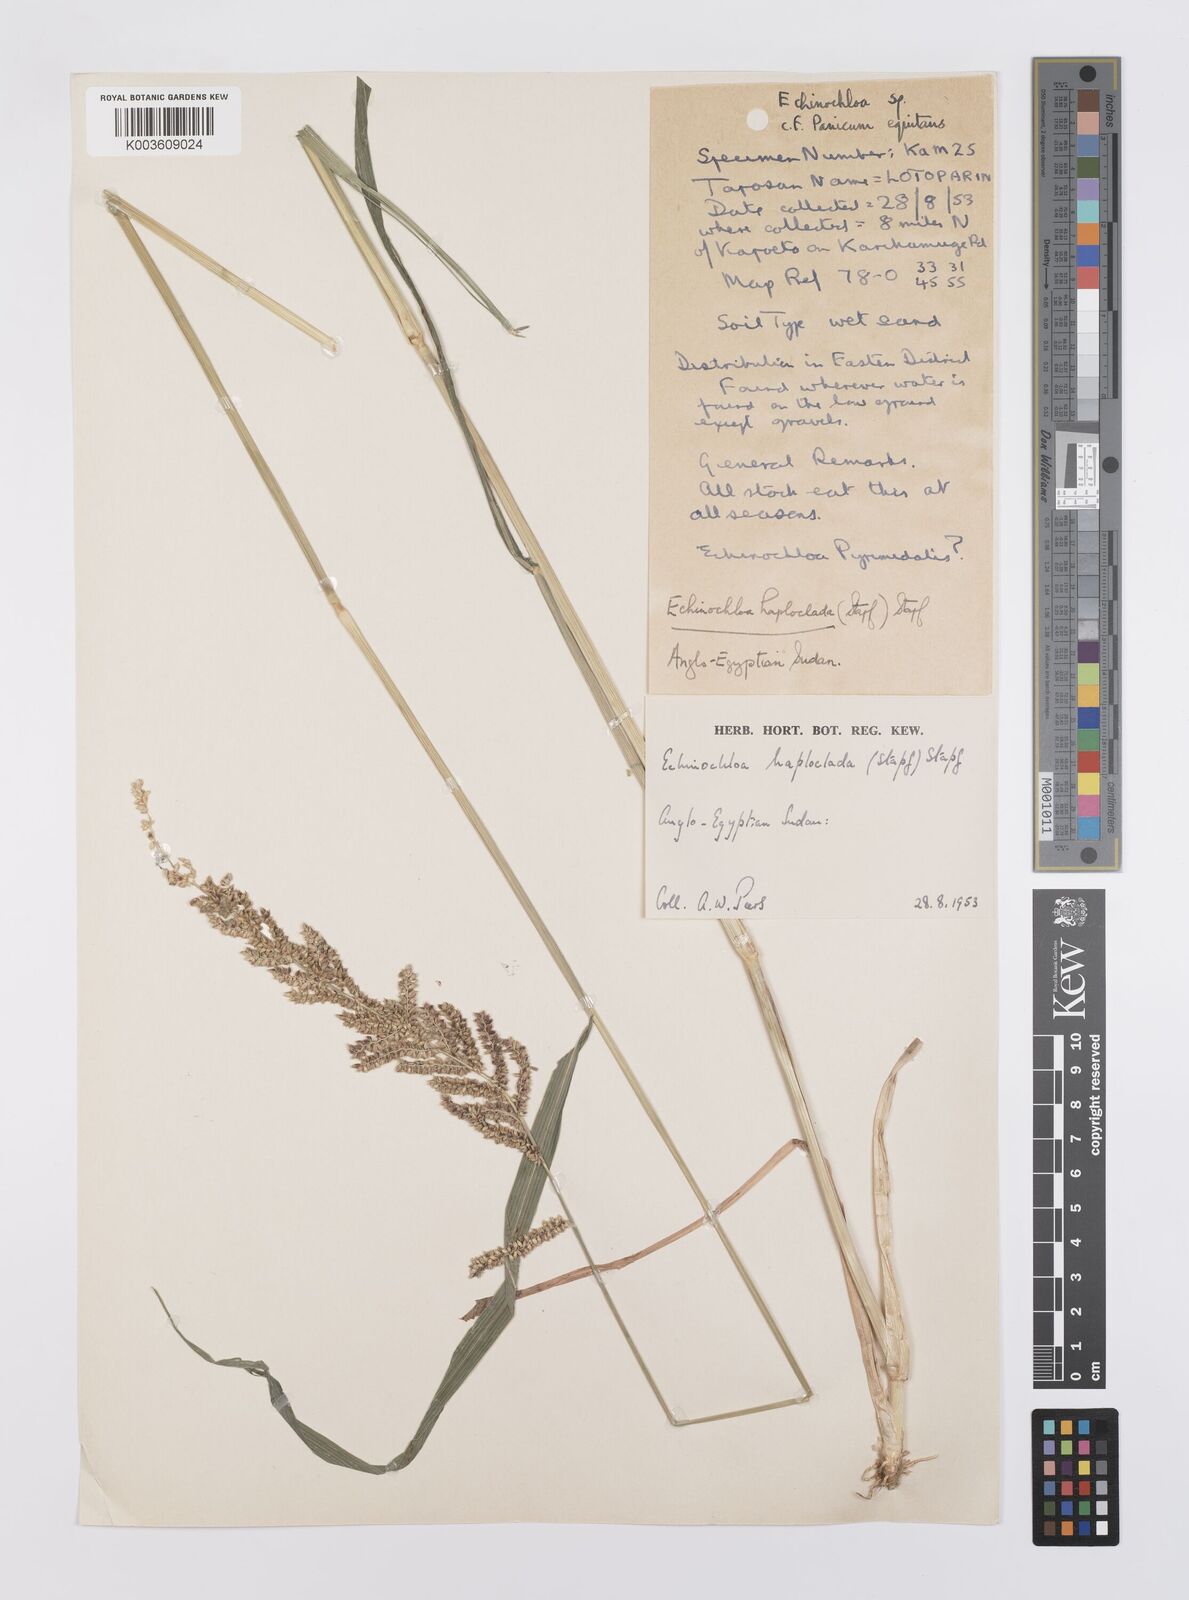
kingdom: Plantae
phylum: Tracheophyta
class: Liliopsida
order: Poales
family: Poaceae
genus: Echinochloa
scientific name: Echinochloa haploclada
